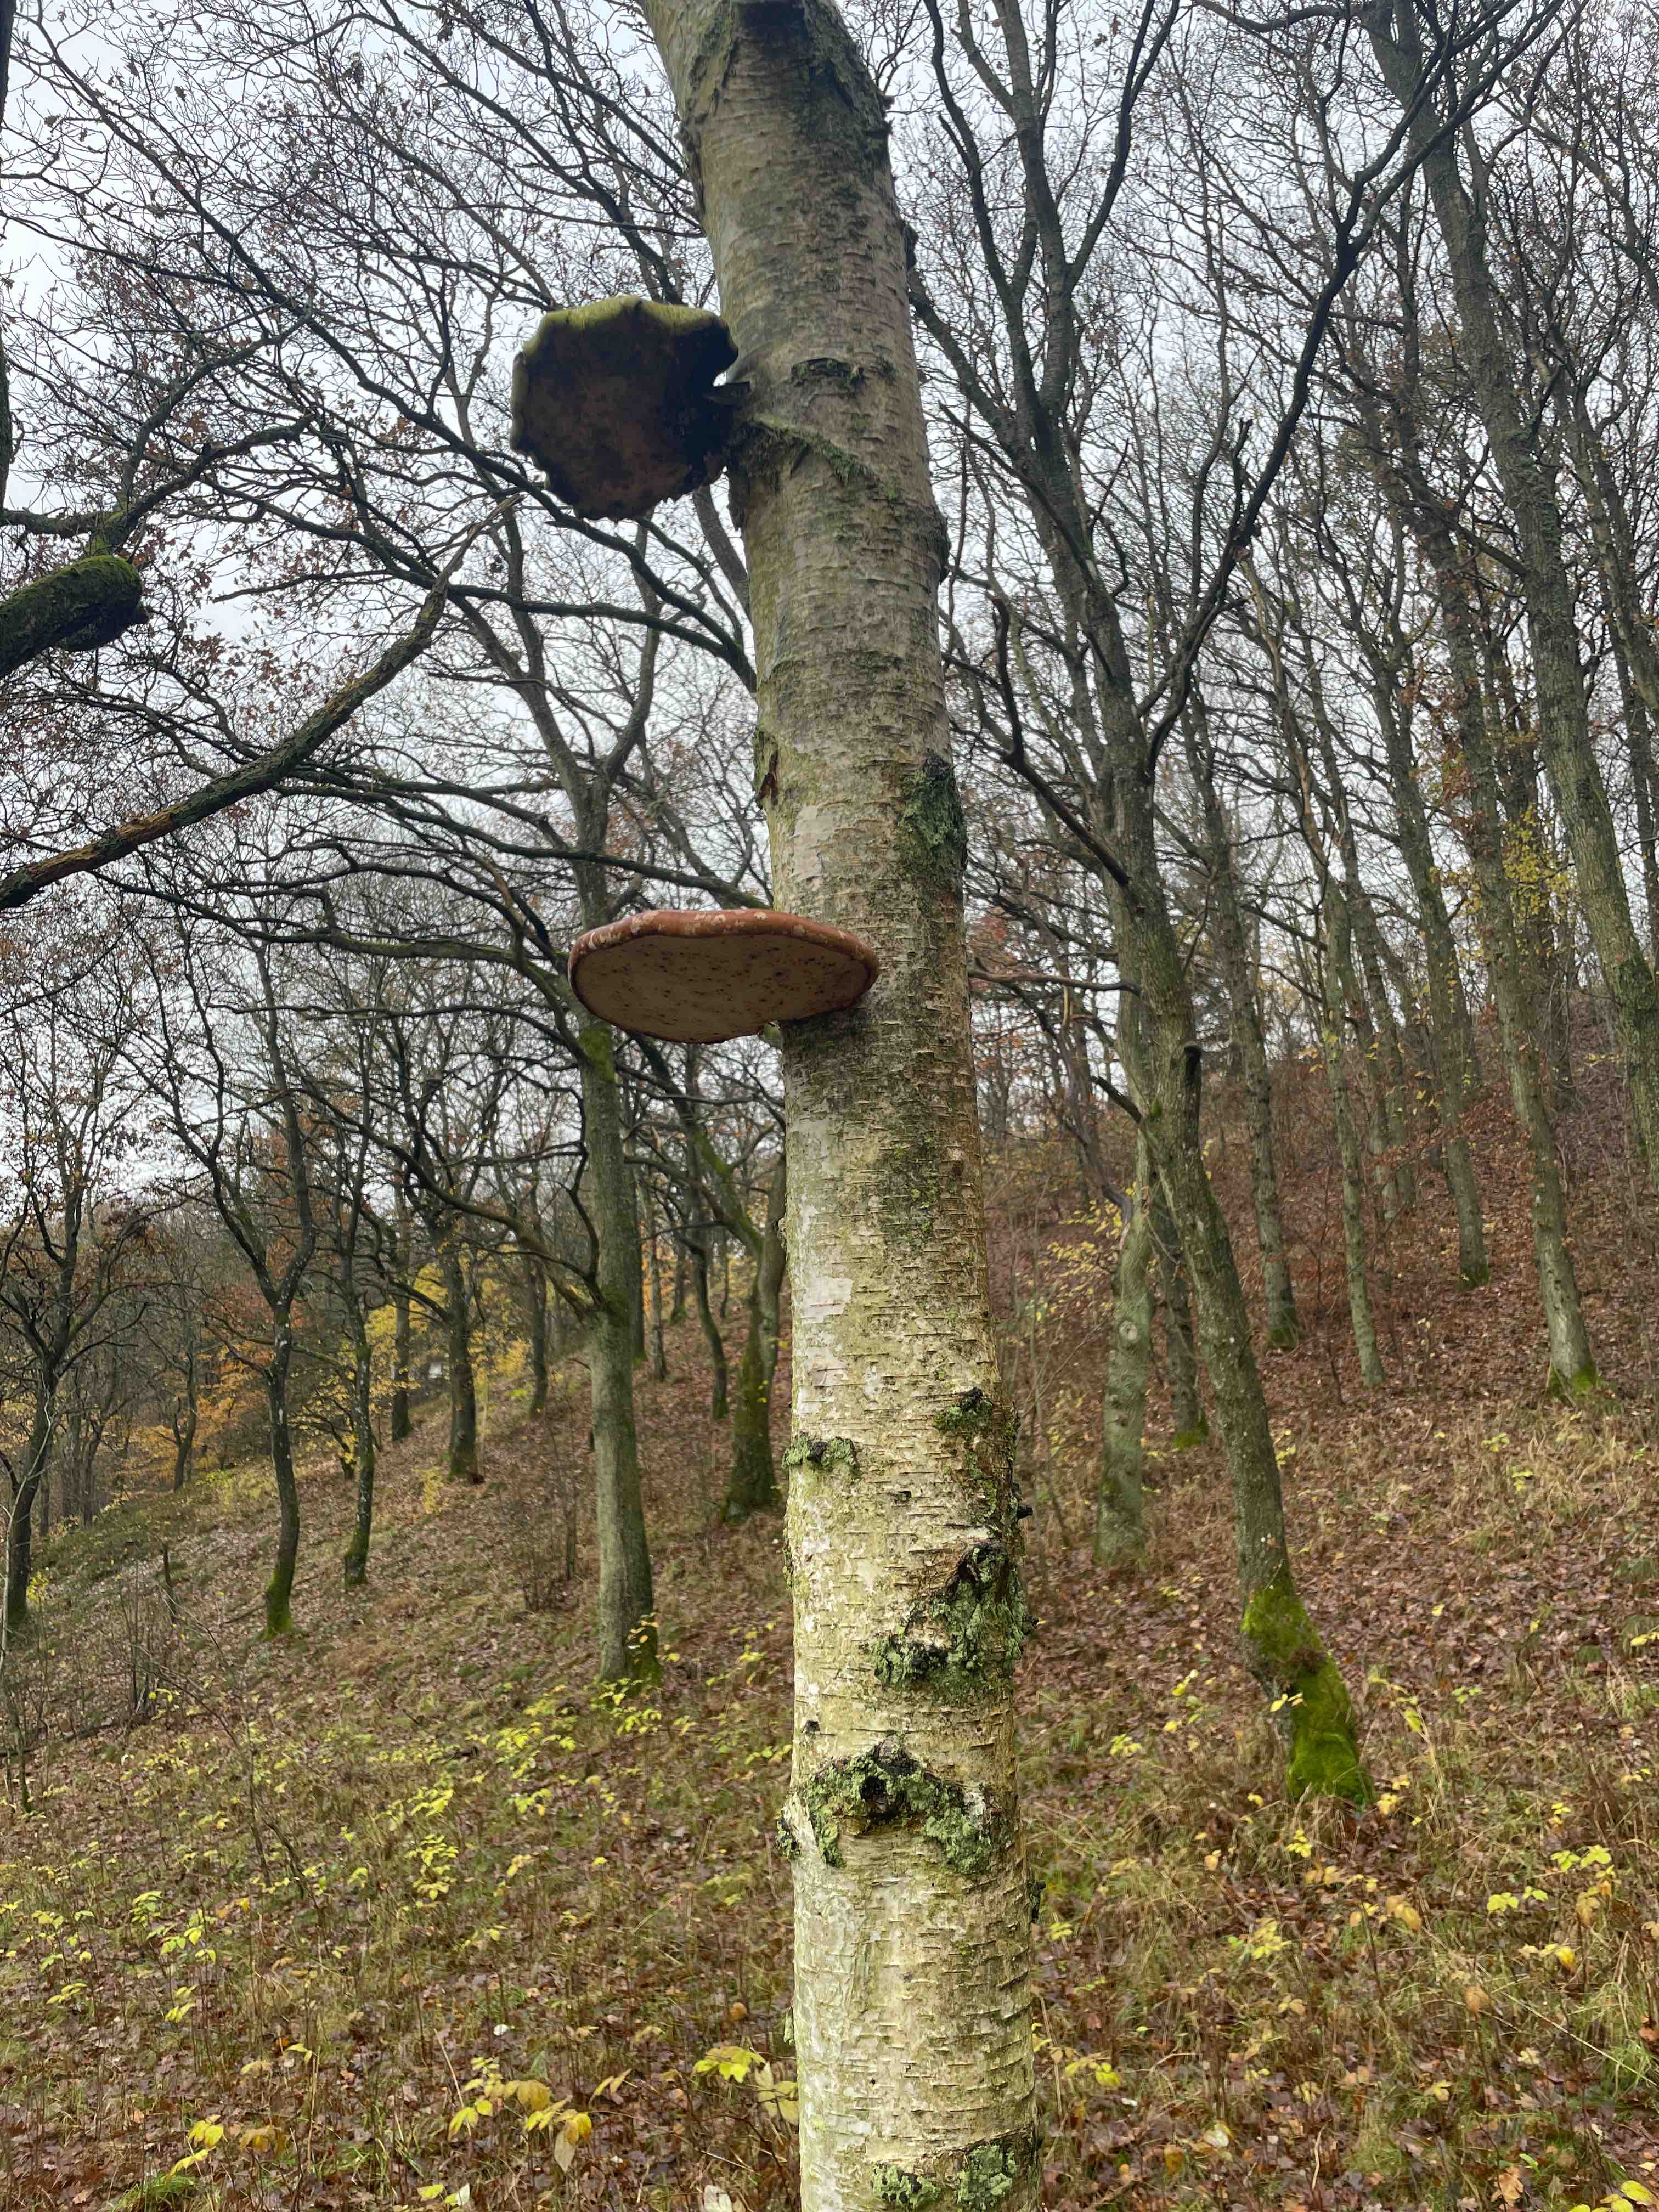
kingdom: Fungi
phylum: Basidiomycota
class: Agaricomycetes
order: Polyporales
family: Fomitopsidaceae
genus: Fomitopsis
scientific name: Fomitopsis betulina
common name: birkeporesvamp
